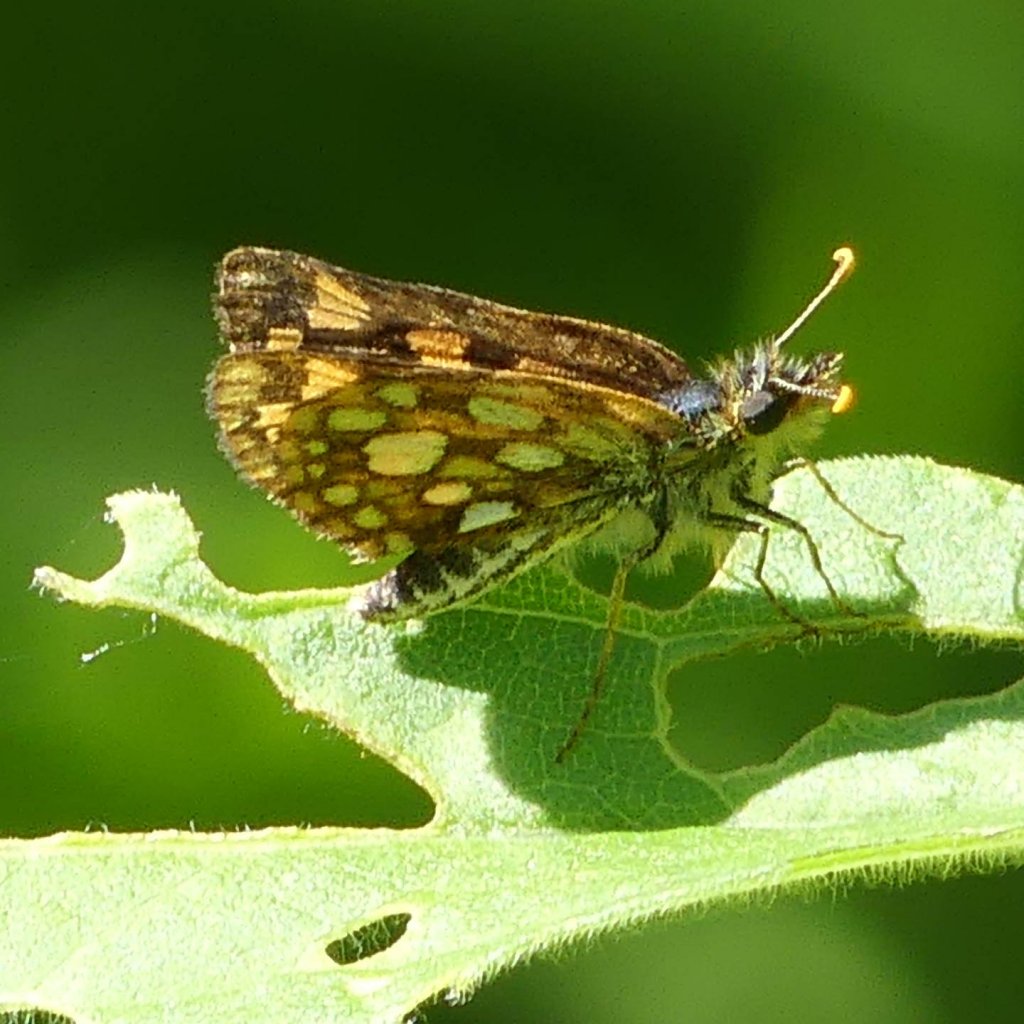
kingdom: Animalia
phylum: Arthropoda
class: Insecta
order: Lepidoptera
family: Hesperiidae
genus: Carterocephalus
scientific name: Carterocephalus palaemon
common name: Chequered Skipper
